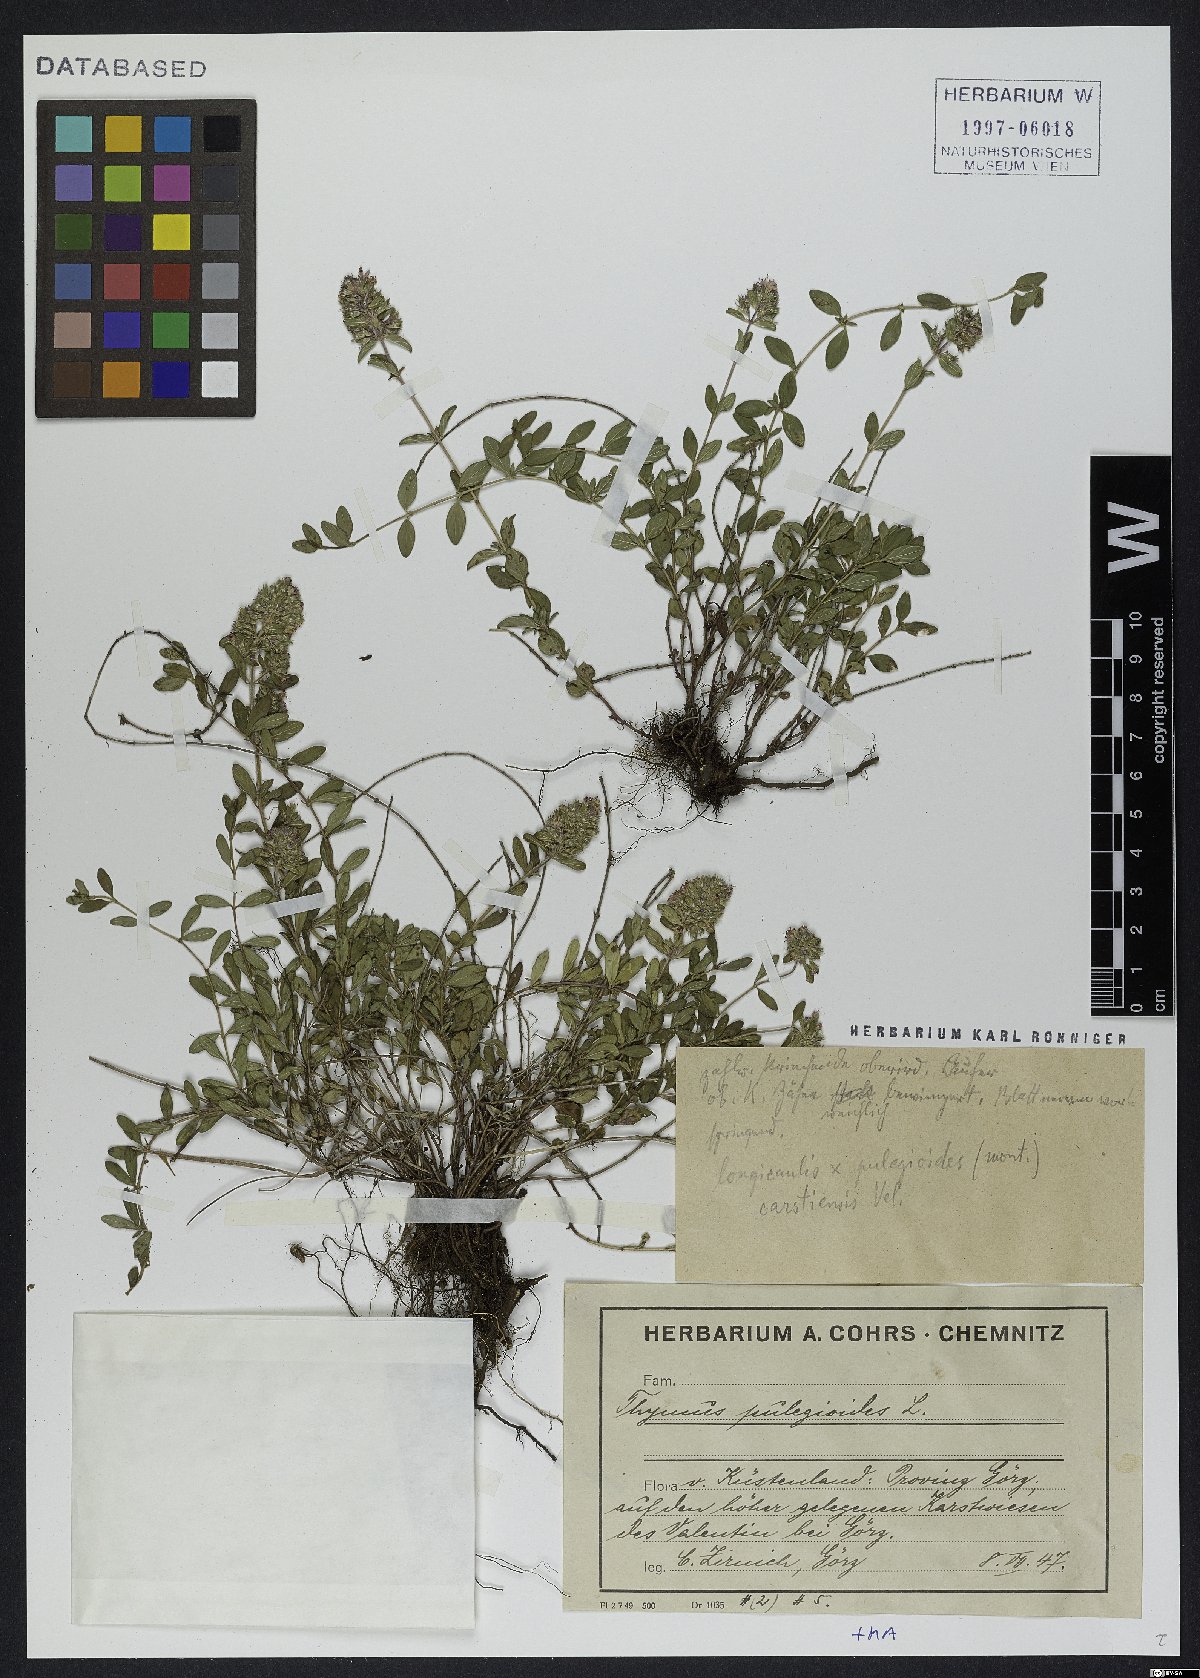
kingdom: Plantae
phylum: Tracheophyta
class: Magnoliopsida
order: Lamiales
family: Lamiaceae
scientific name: Lamiaceae
